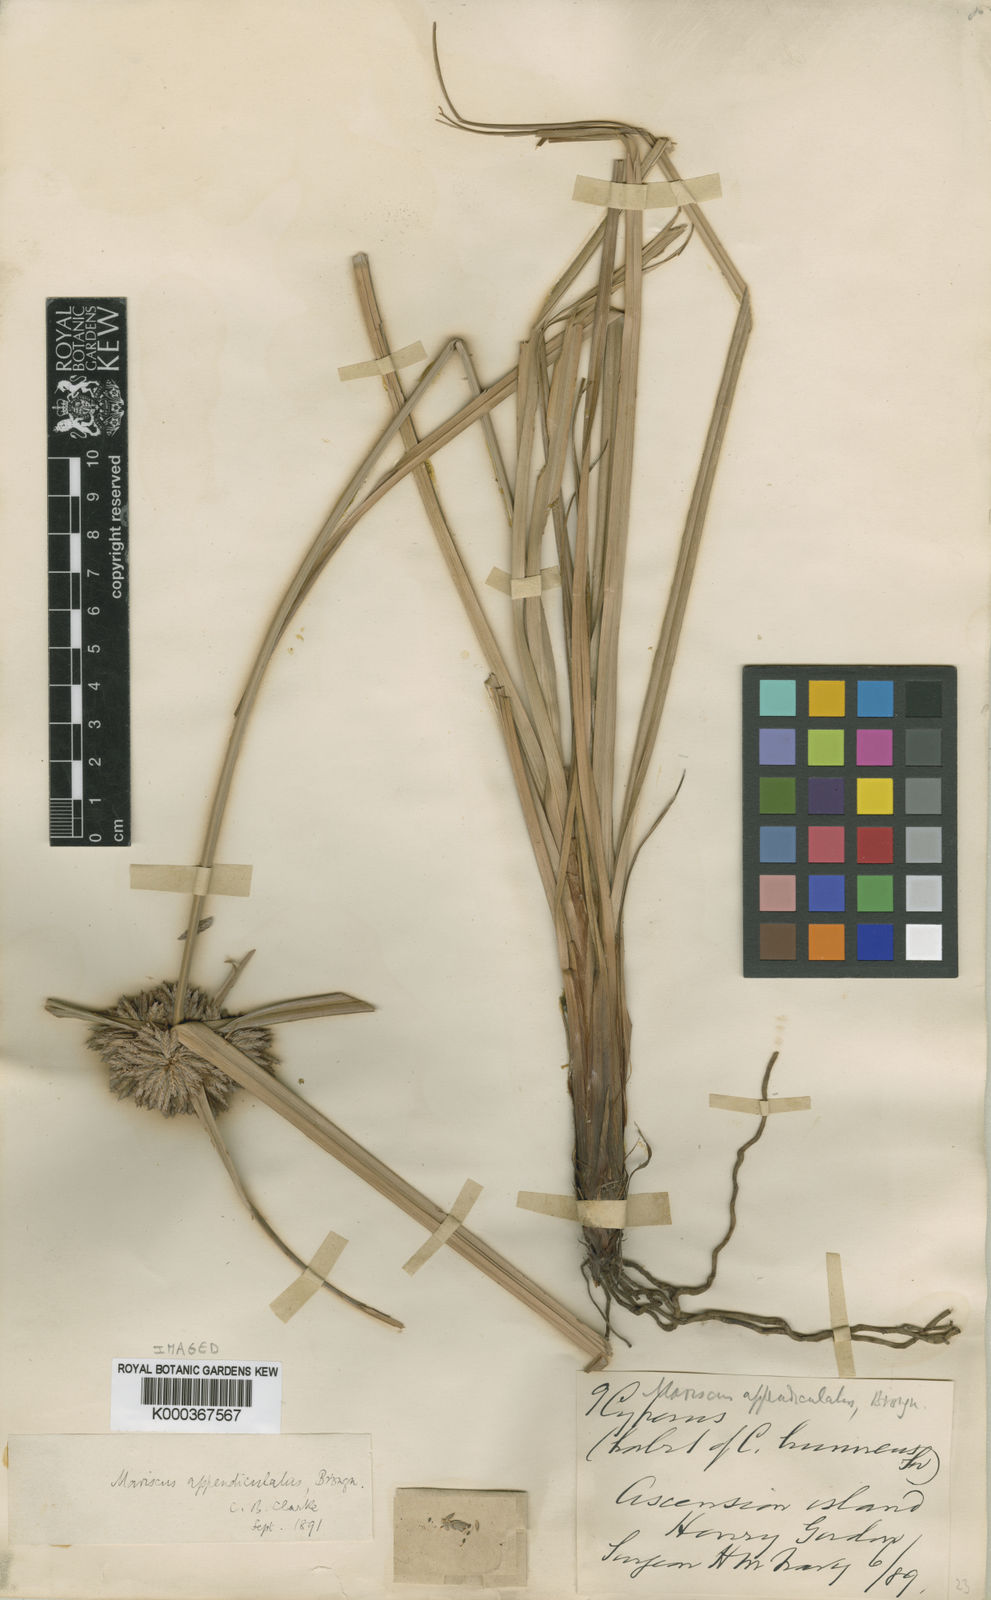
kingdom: Plantae
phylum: Tracheophyta
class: Liliopsida
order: Poales
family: Cyperaceae
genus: Cyperus
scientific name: Cyperus appendiculatus
